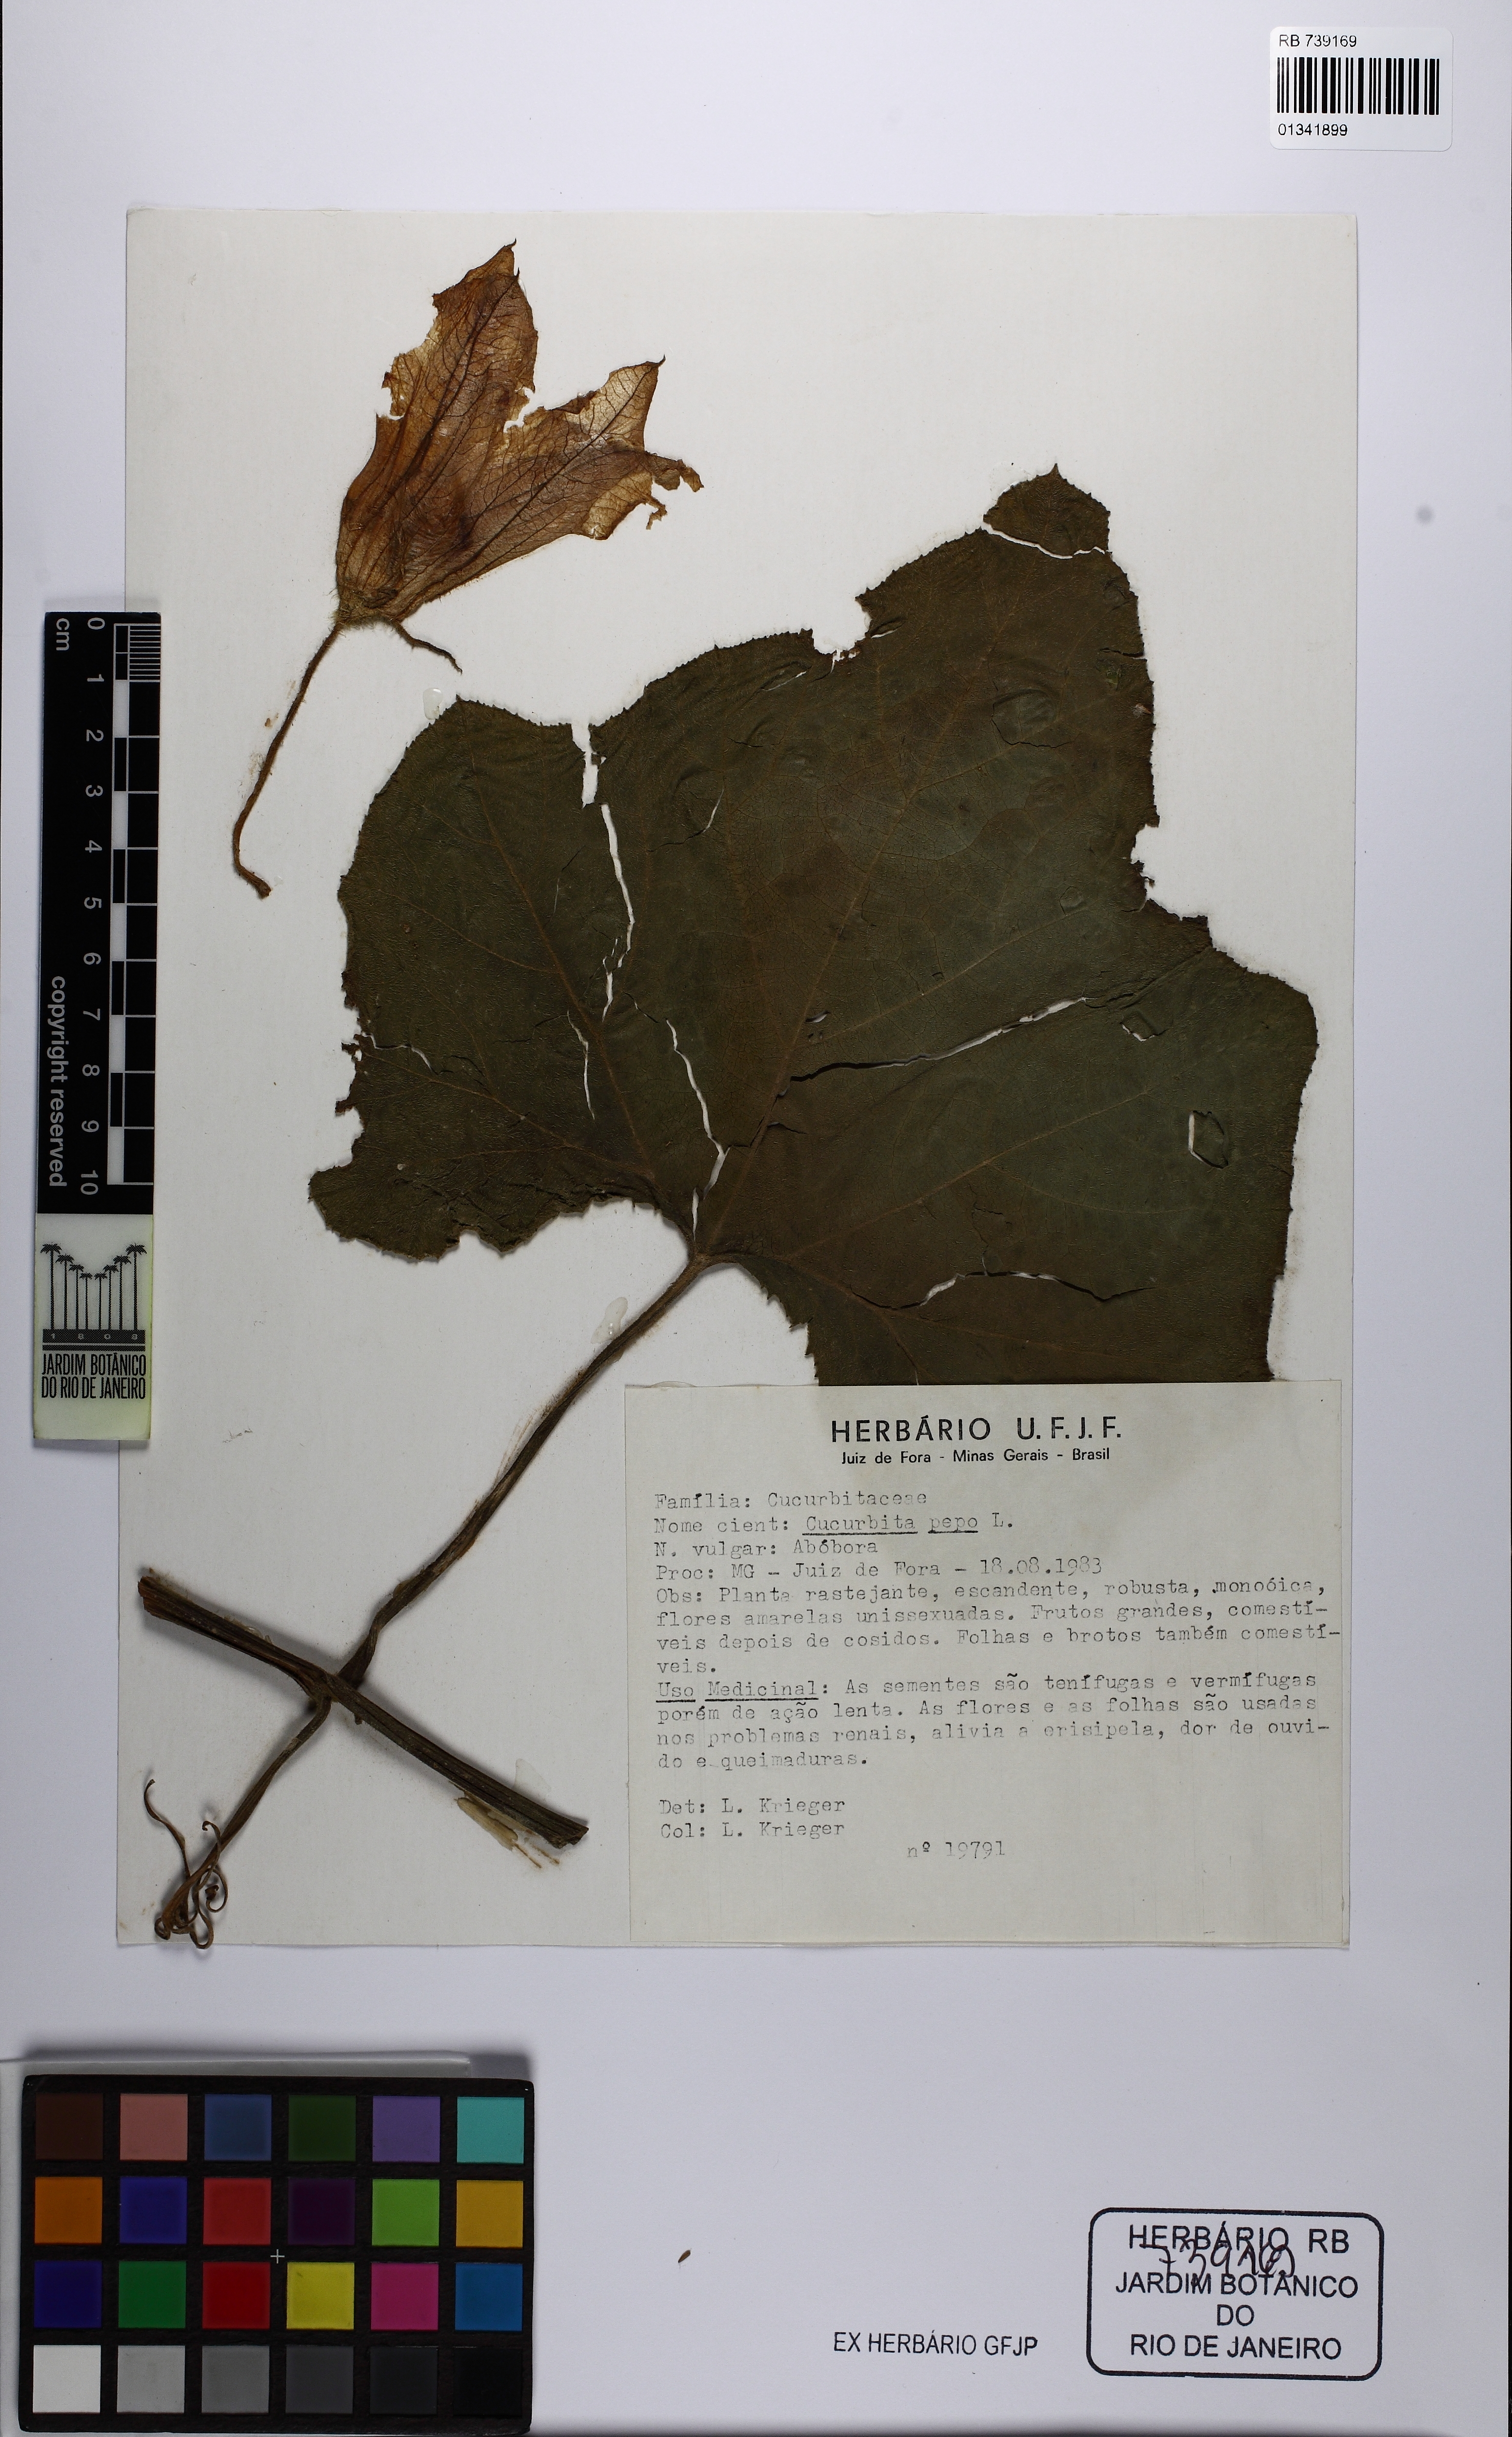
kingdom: Plantae
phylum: Tracheophyta
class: Magnoliopsida
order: Cucurbitales
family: Cucurbitaceae
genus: Cucurbita
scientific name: Cucurbita pepo
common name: Marrow
